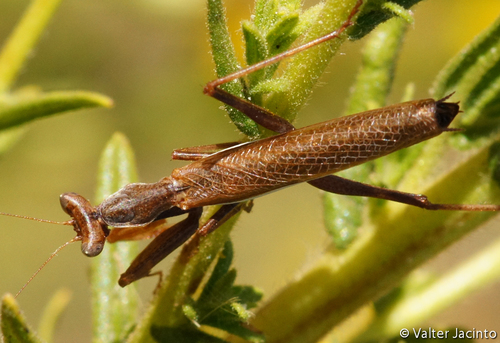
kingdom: Animalia
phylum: Arthropoda
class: Insecta
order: Mantodea
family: Amelidae
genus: Ameles
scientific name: Ameles spallanzania
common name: European dwarf mantis
